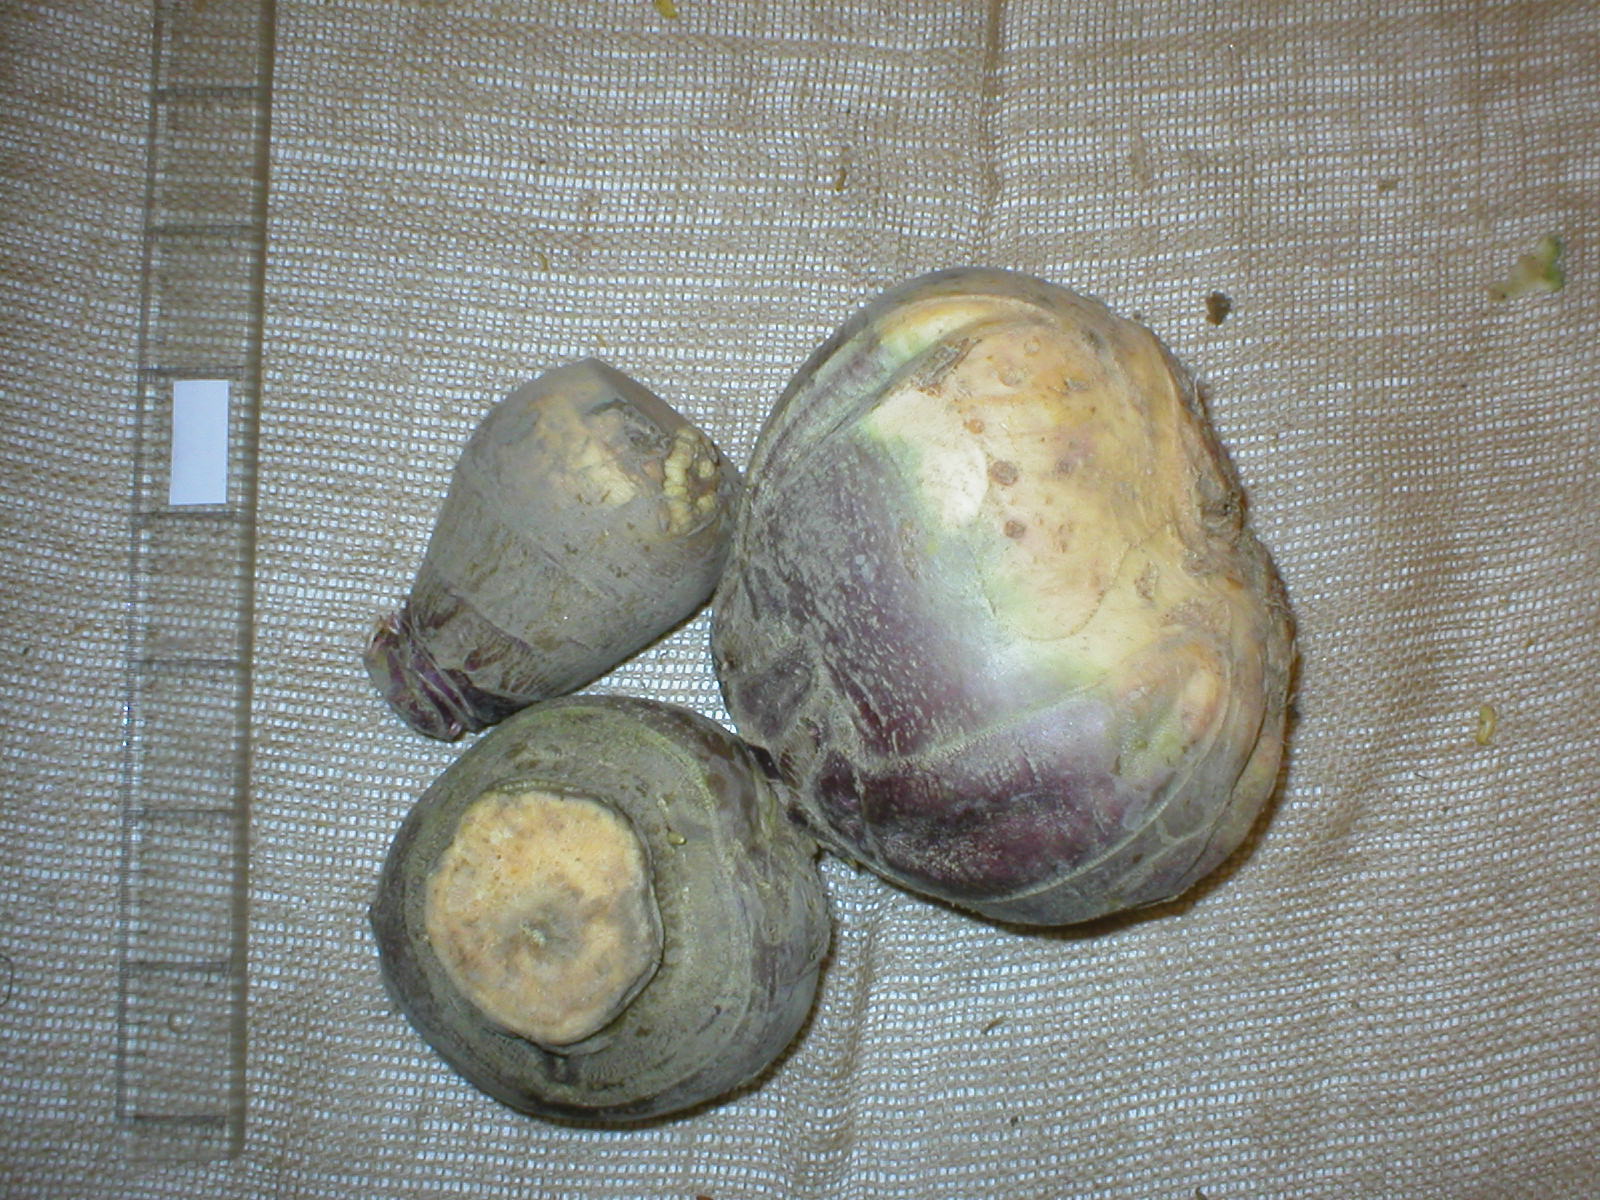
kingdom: Plantae
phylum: Tracheophyta
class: Magnoliopsida
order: Brassicales
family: Brassicaceae
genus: Brassica
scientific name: Brassica napus
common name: Rape
